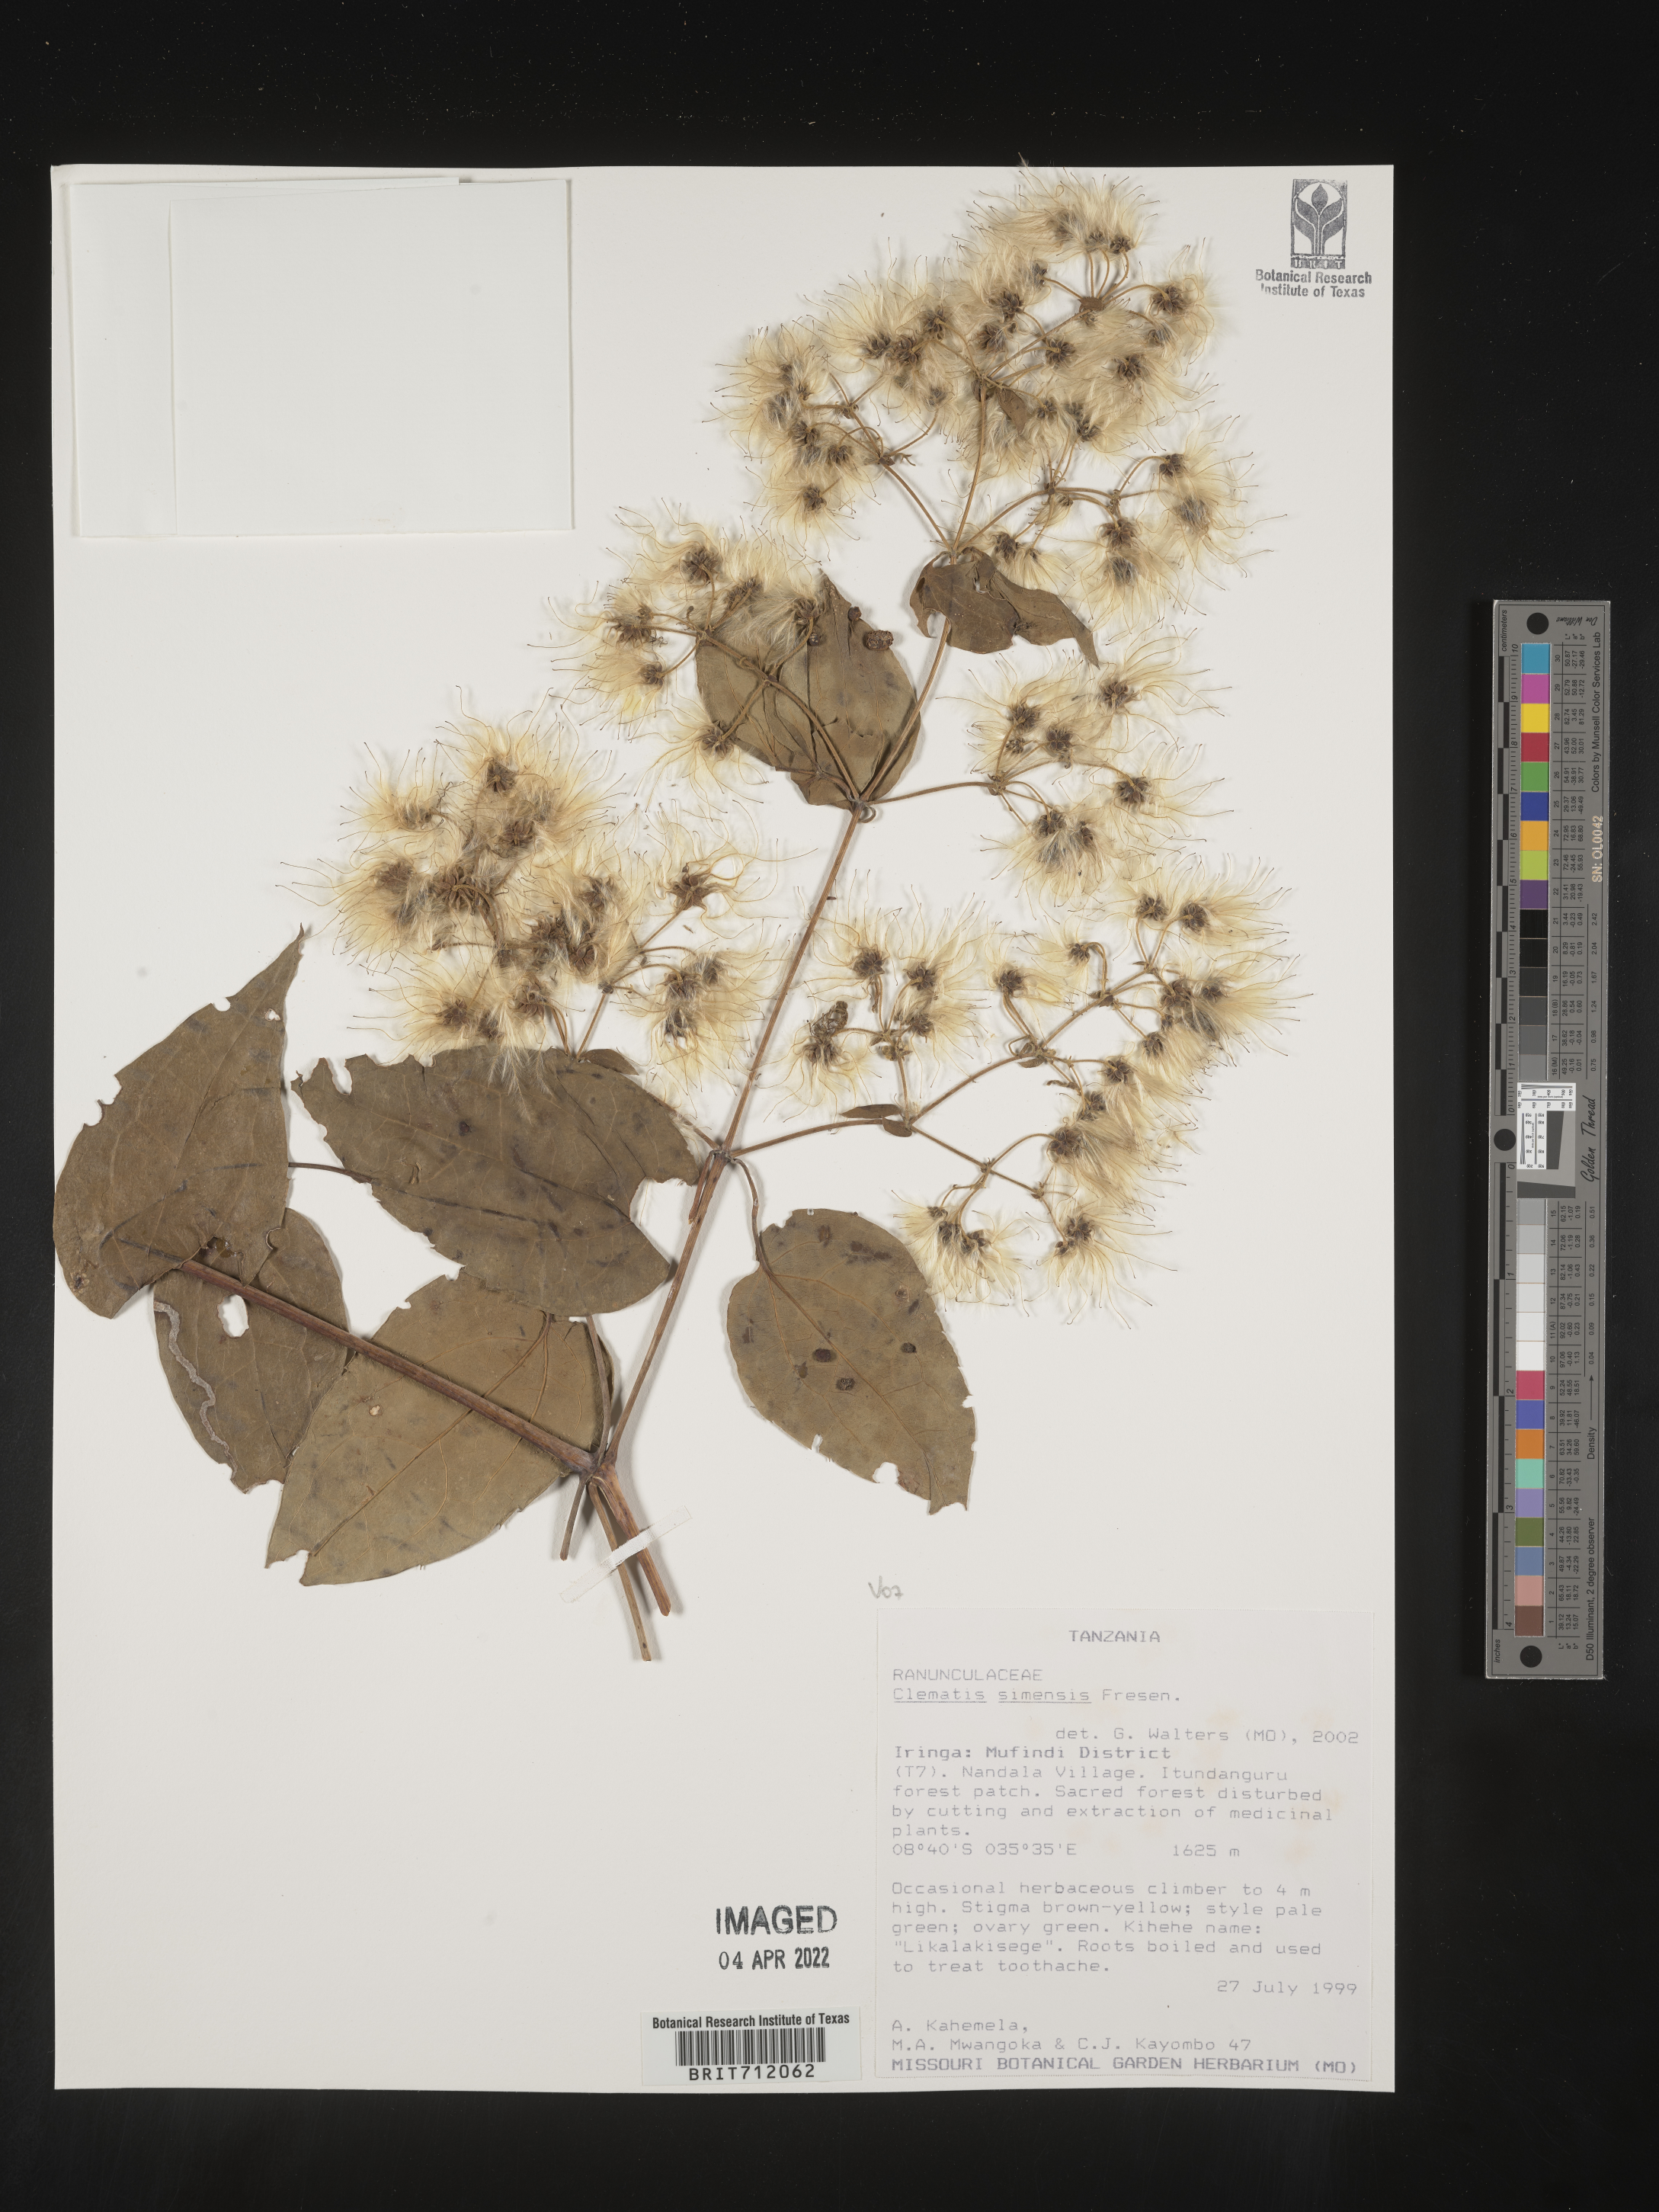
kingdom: Plantae
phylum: Tracheophyta
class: Magnoliopsida
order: Ranunculales
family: Ranunculaceae
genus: Clematis
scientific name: Clematis
